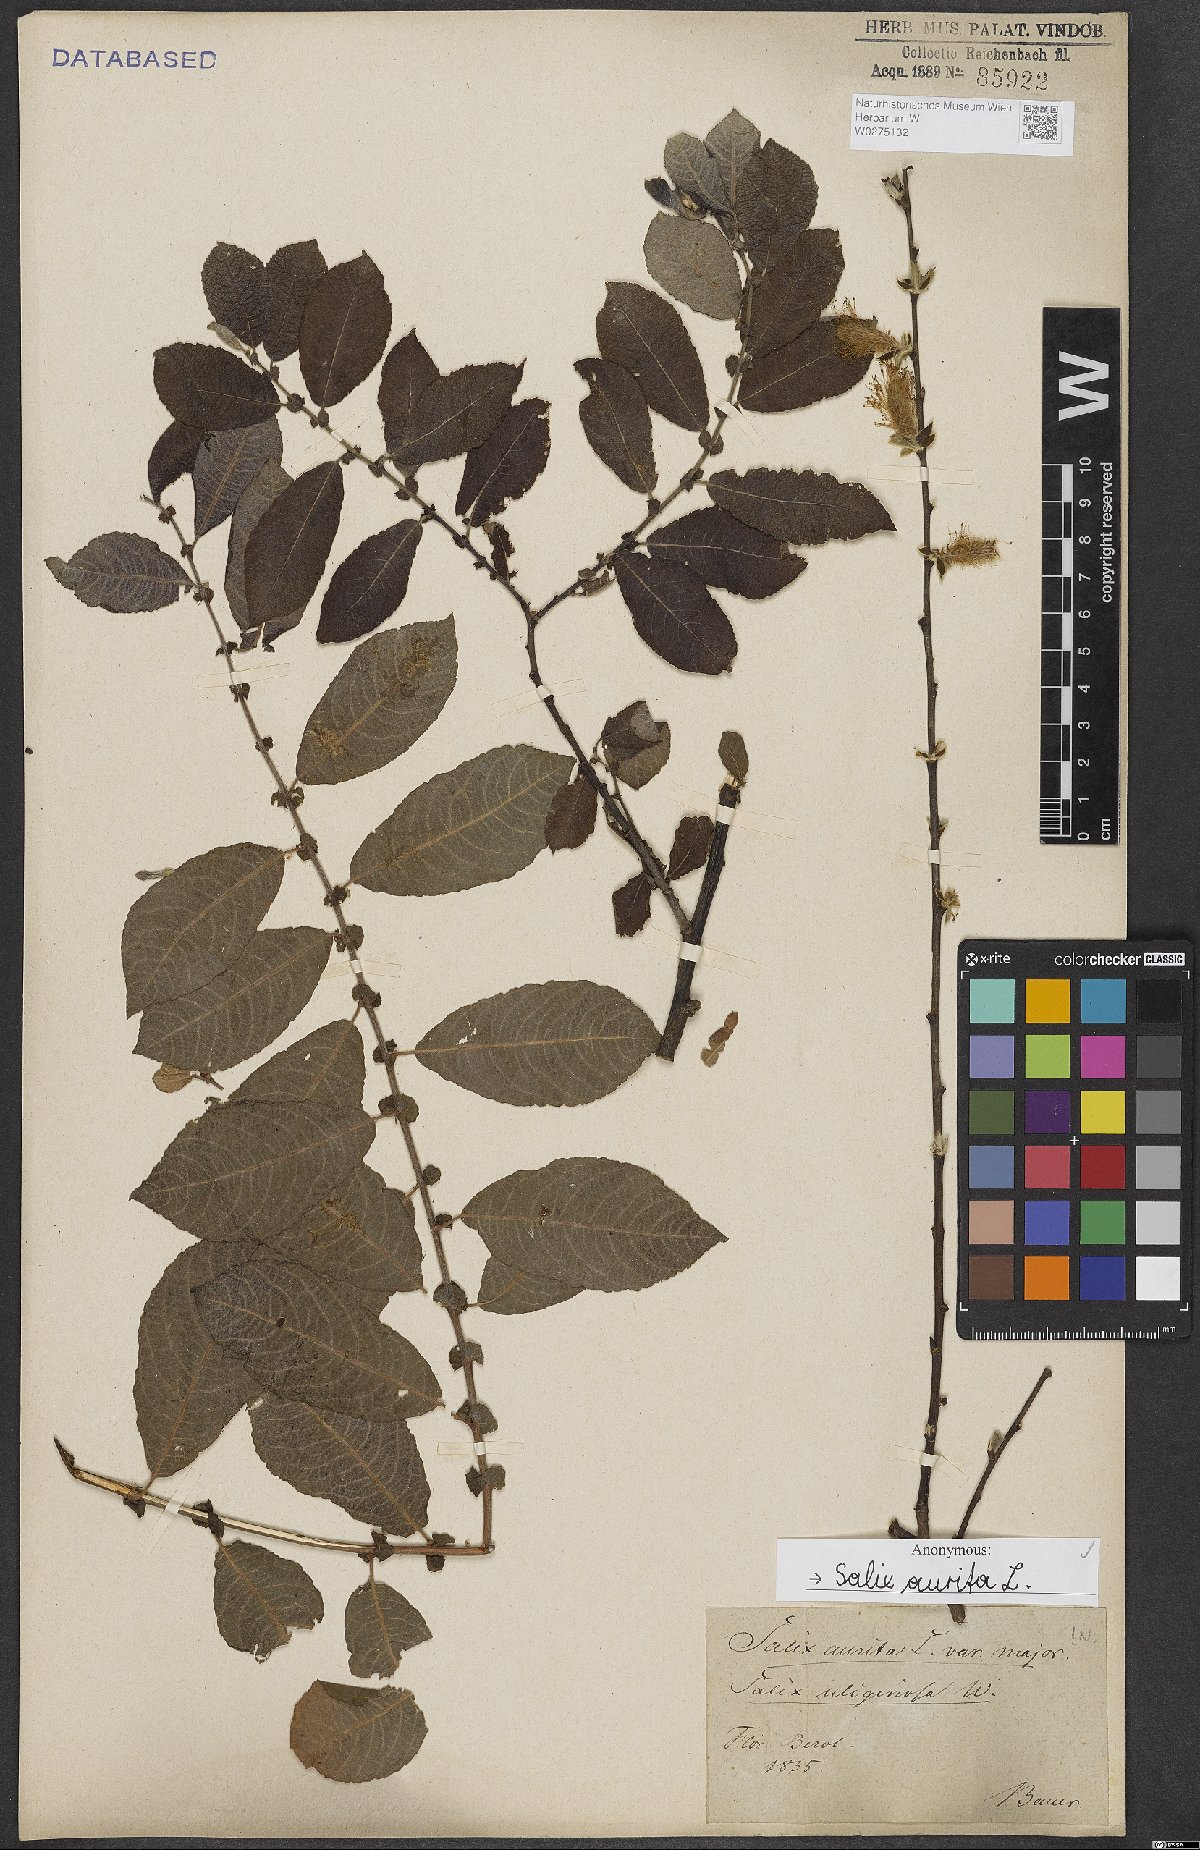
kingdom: Plantae
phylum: Tracheophyta
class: Magnoliopsida
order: Malpighiales
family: Salicaceae
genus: Salix
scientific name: Salix aurita
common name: Eared willow
